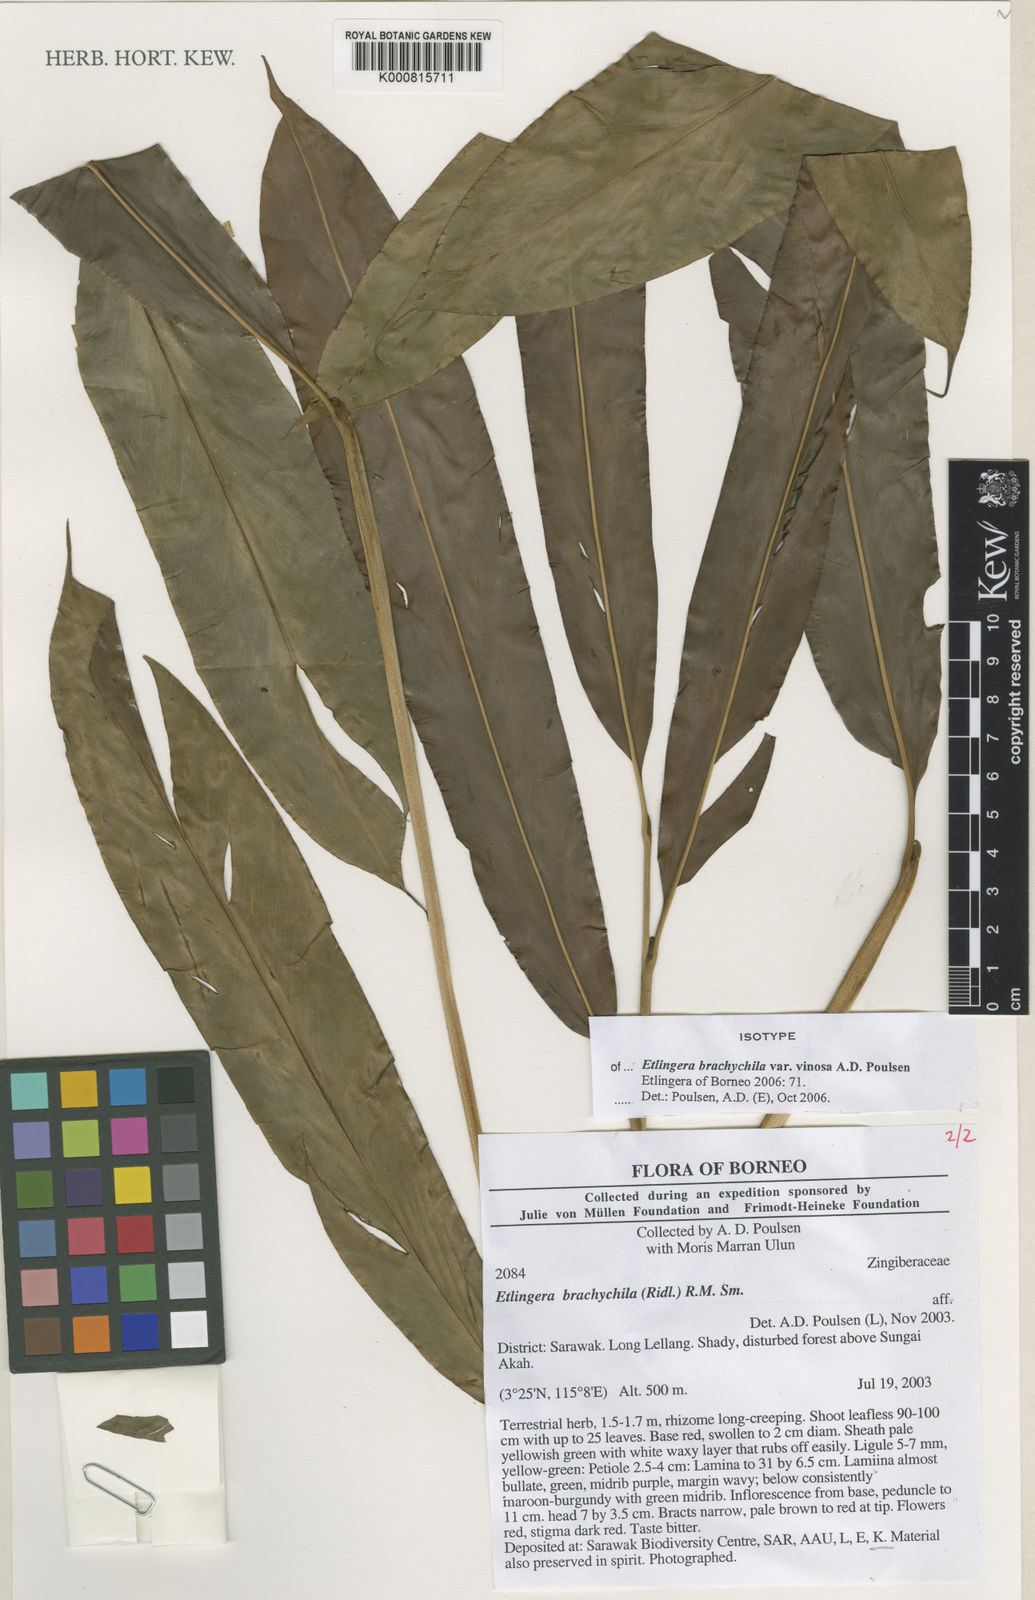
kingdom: Plantae
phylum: Tracheophyta
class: Liliopsida
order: Zingiberales
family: Zingiberaceae
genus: Etlingera
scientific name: Etlingera brachychila
